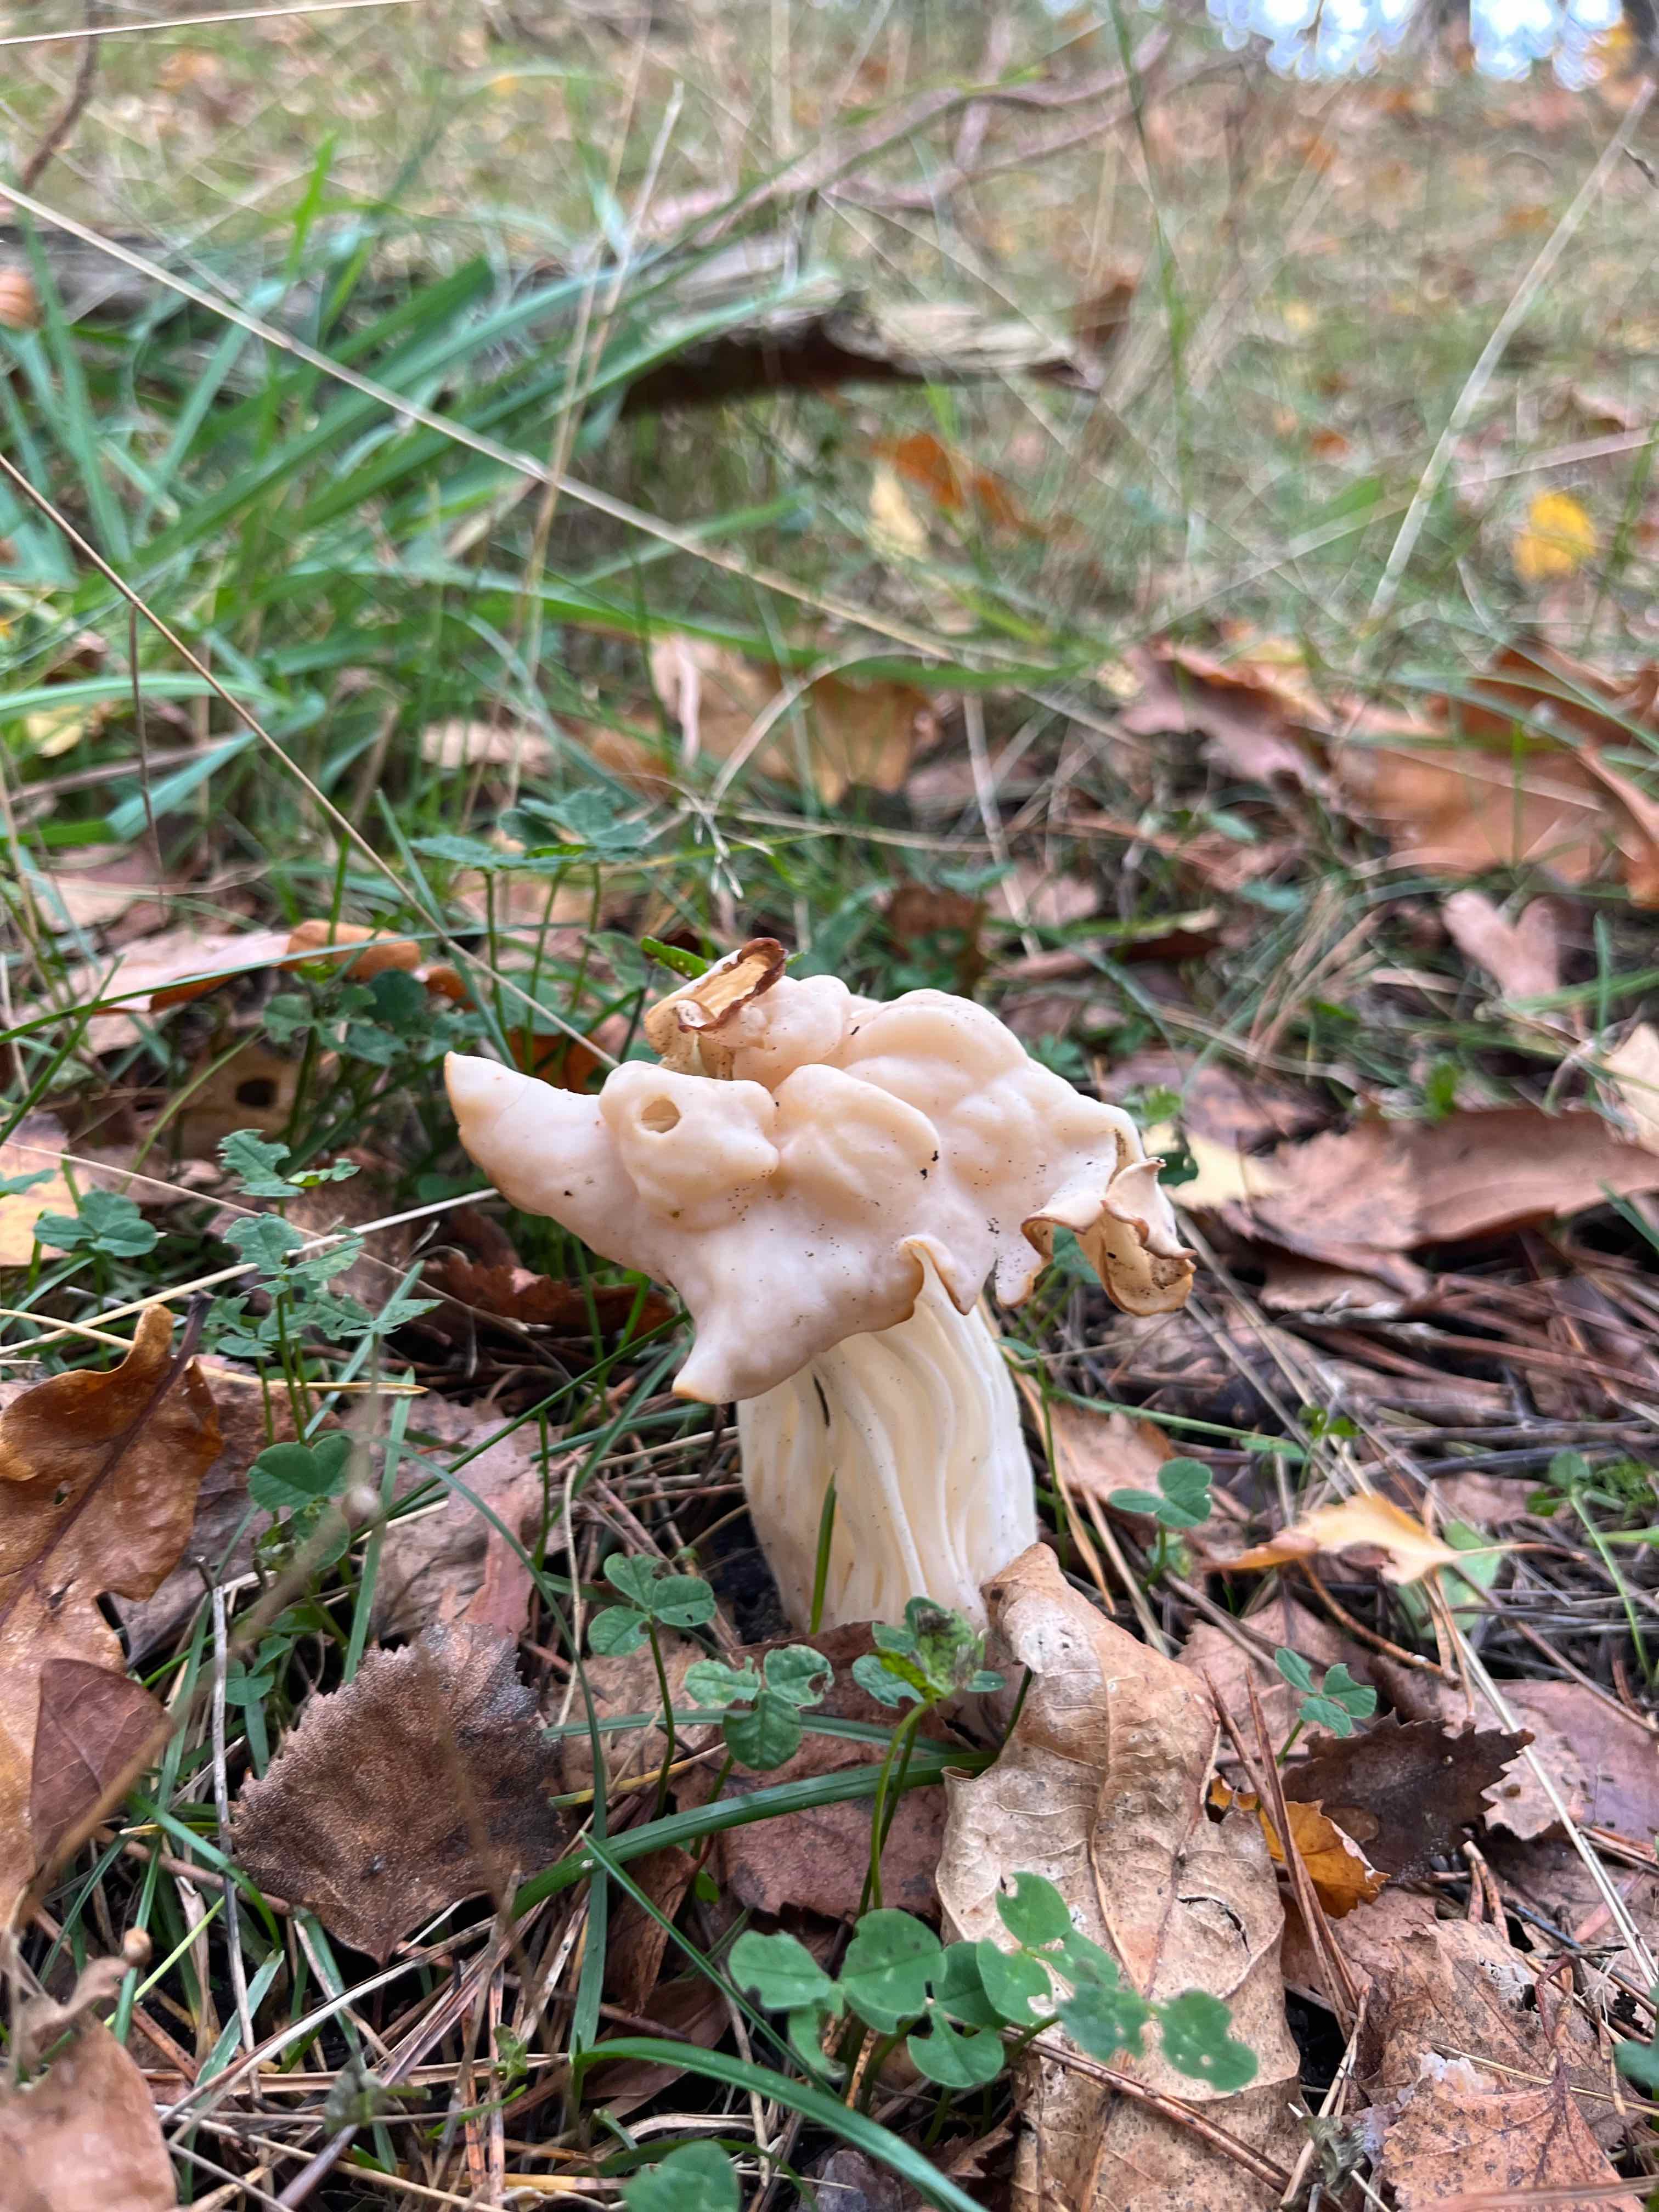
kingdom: Fungi
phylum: Ascomycota
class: Pezizomycetes
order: Pezizales
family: Helvellaceae
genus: Helvella
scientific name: Helvella crispa
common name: kruset foldhat
